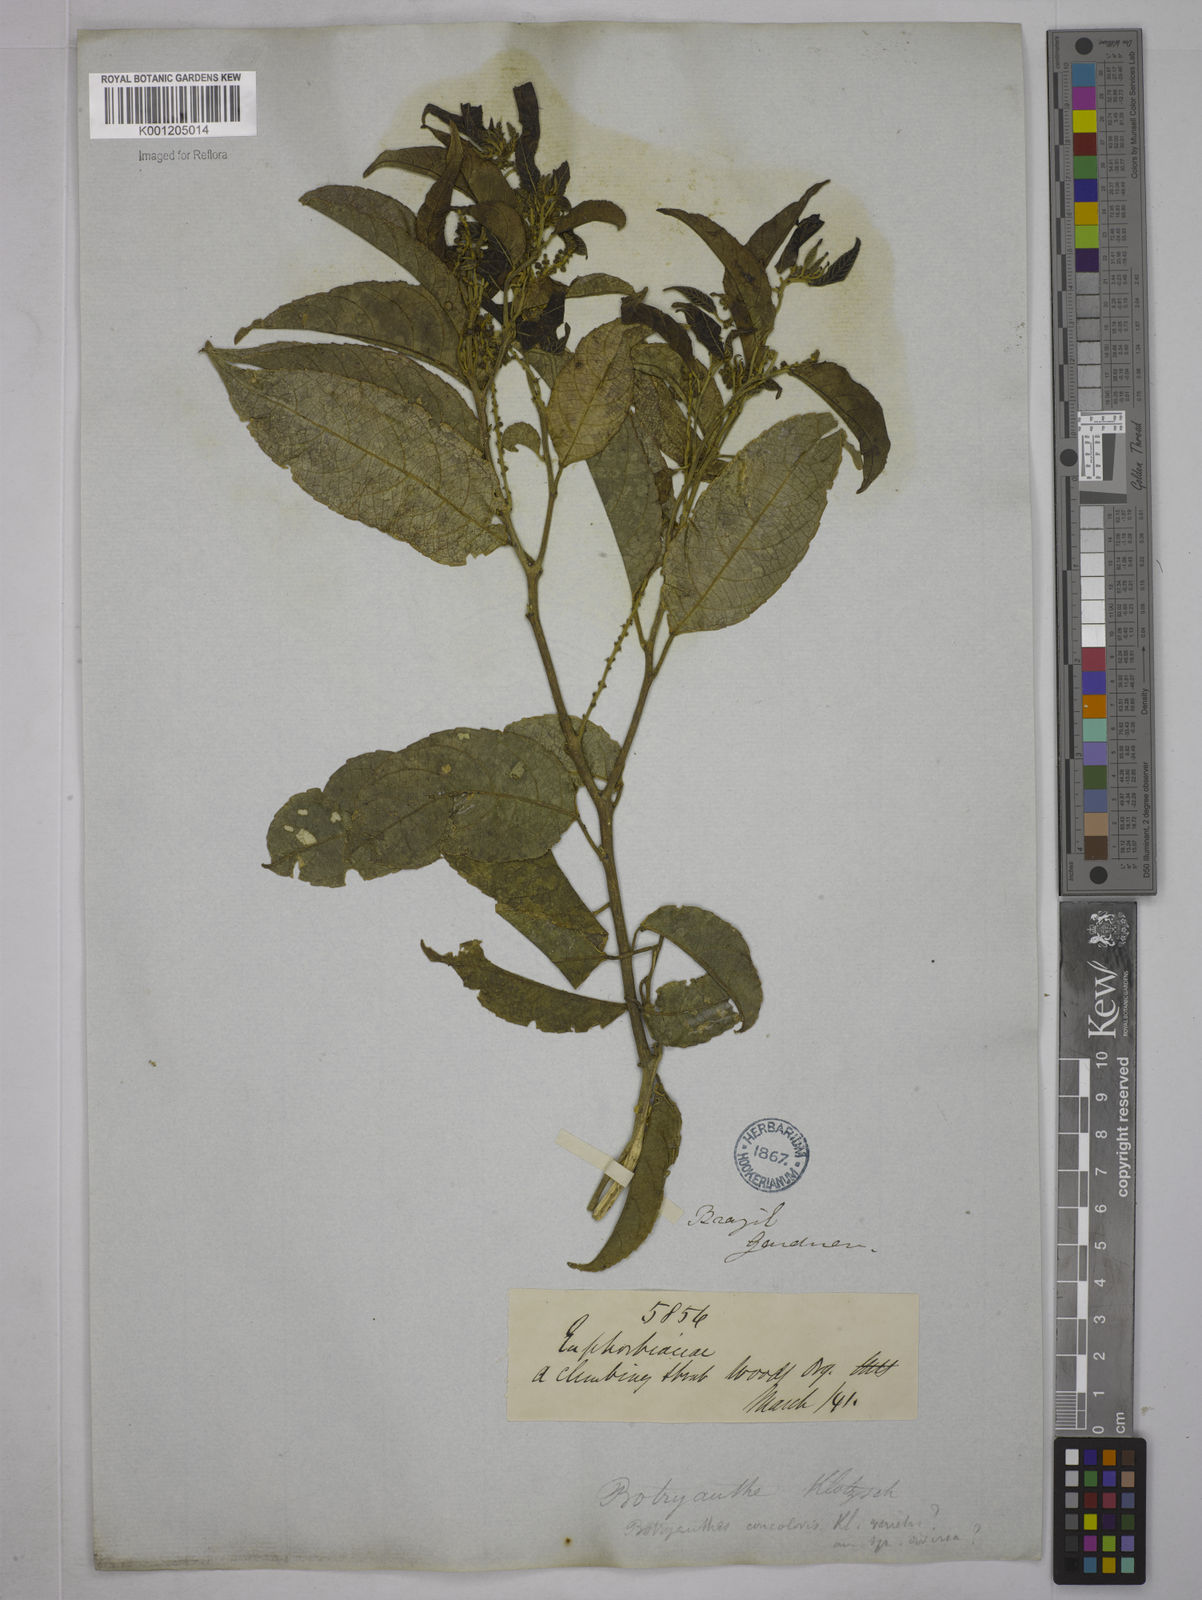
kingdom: Plantae
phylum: Tracheophyta
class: Magnoliopsida
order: Malpighiales
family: Euphorbiaceae
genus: Plukenetia
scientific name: Plukenetia serrata
